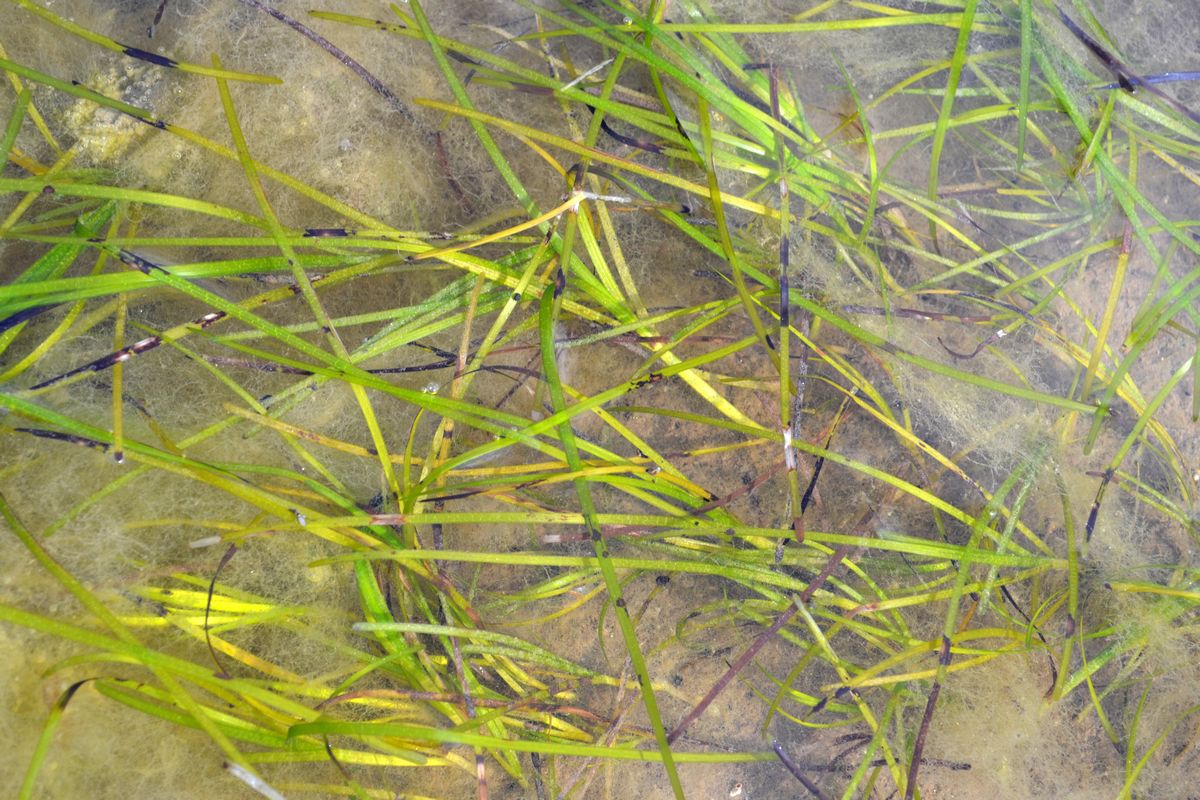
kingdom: Plantae
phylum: Tracheophyta
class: Liliopsida
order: Alismatales
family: Zosteraceae
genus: Zostera
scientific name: Zostera marina
